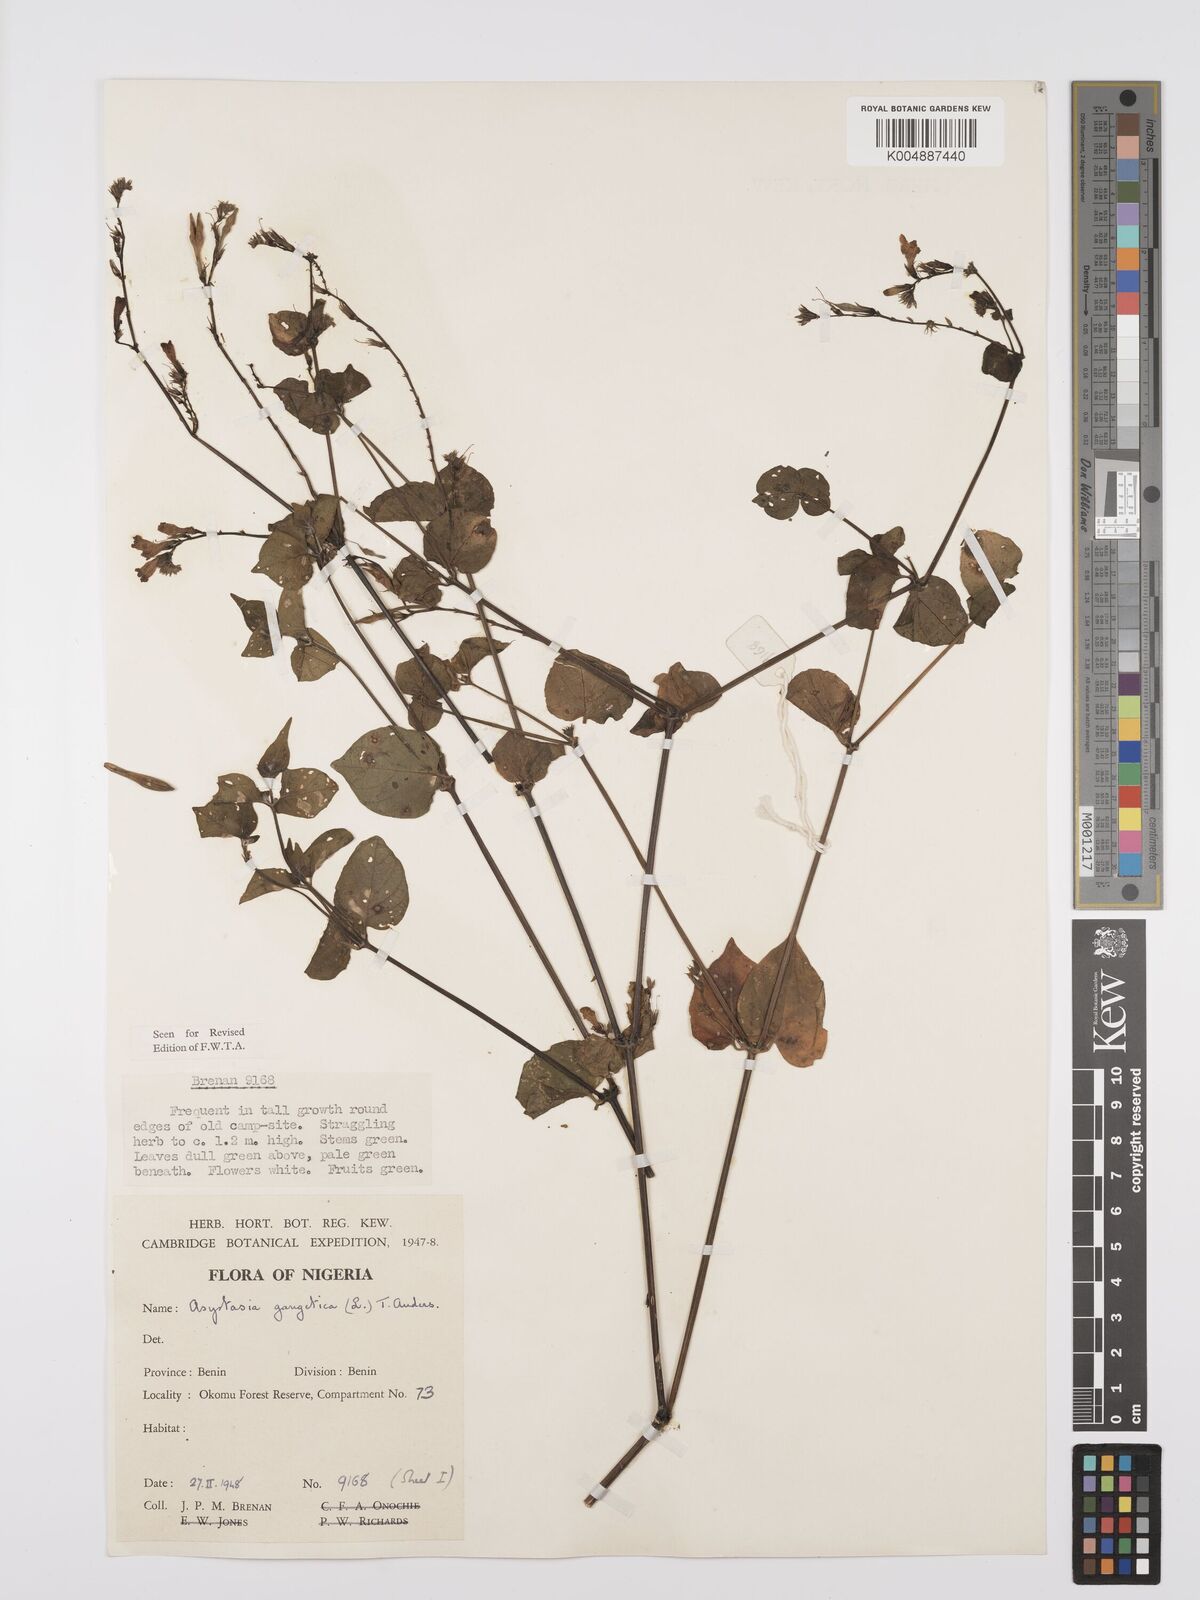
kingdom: Plantae
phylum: Tracheophyta
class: Magnoliopsida
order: Lamiales
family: Acanthaceae
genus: Asystasia
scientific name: Asystasia gangetica
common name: Chinese violet
